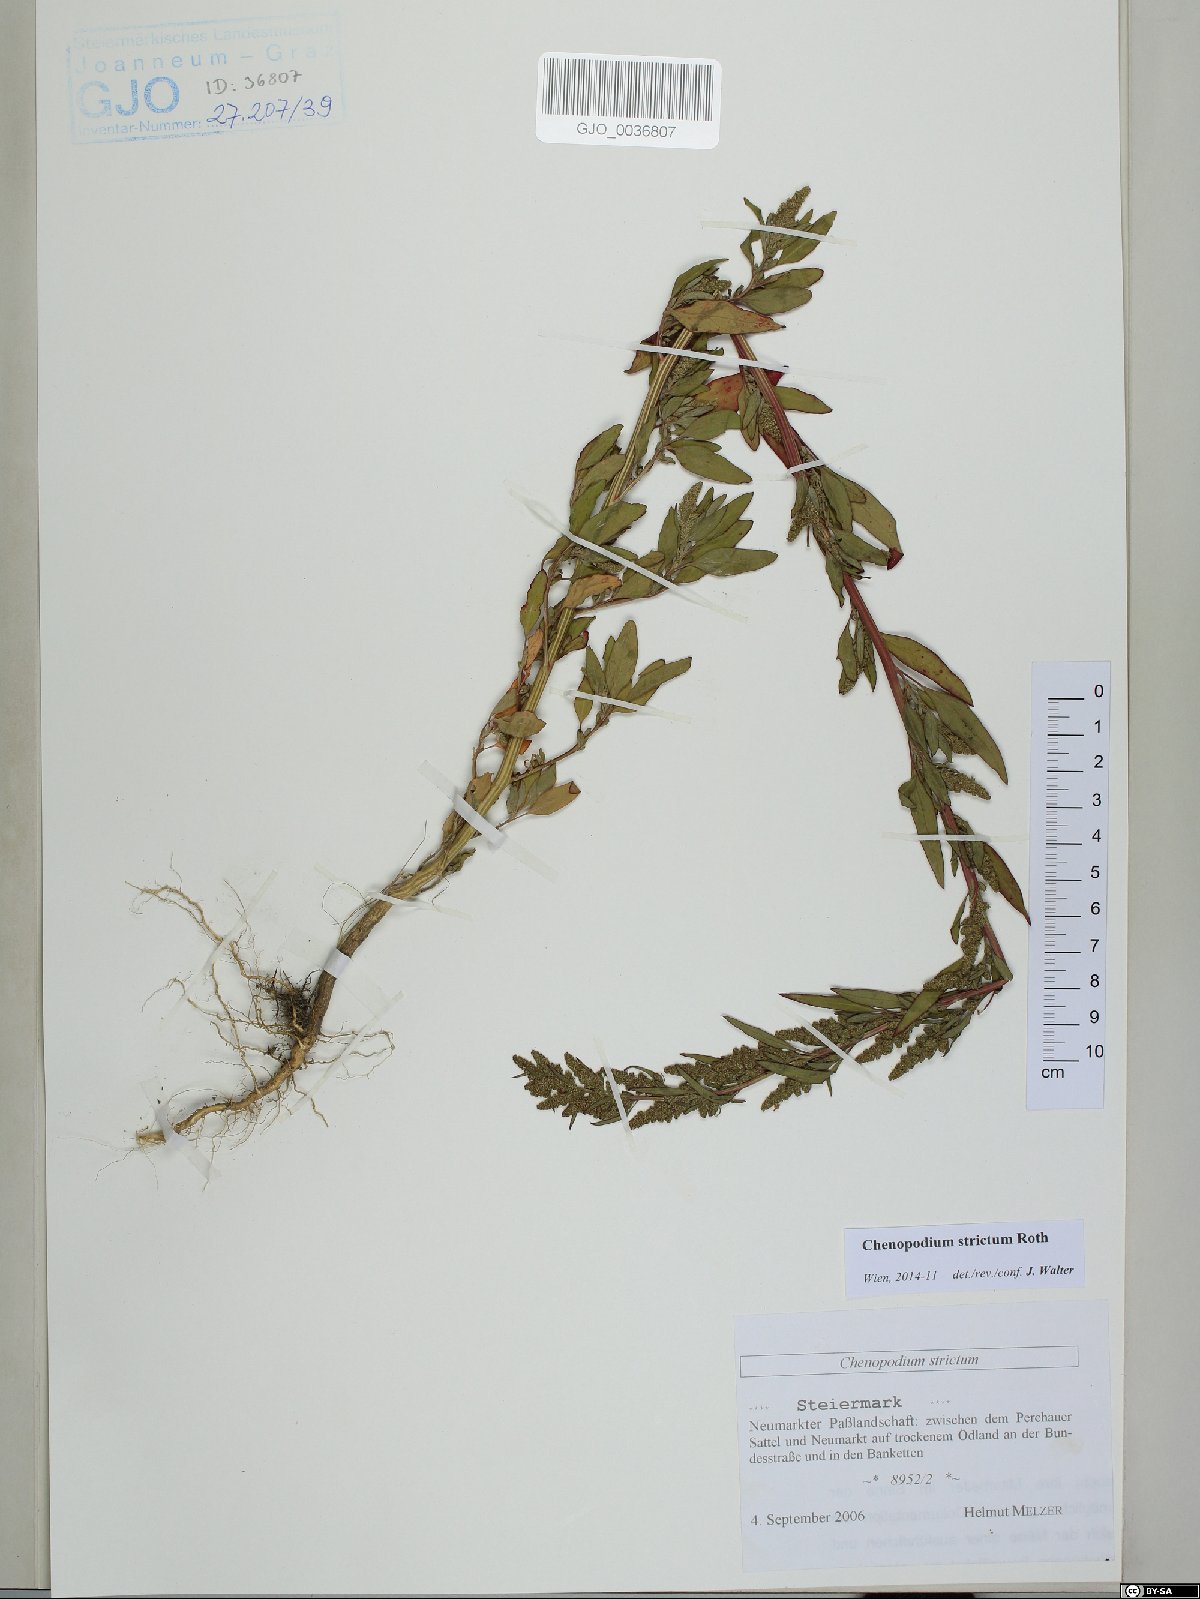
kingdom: Plantae
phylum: Tracheophyta
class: Magnoliopsida
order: Caryophyllales
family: Amaranthaceae
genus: Chenopodium
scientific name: Chenopodium album
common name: Fat-hen
